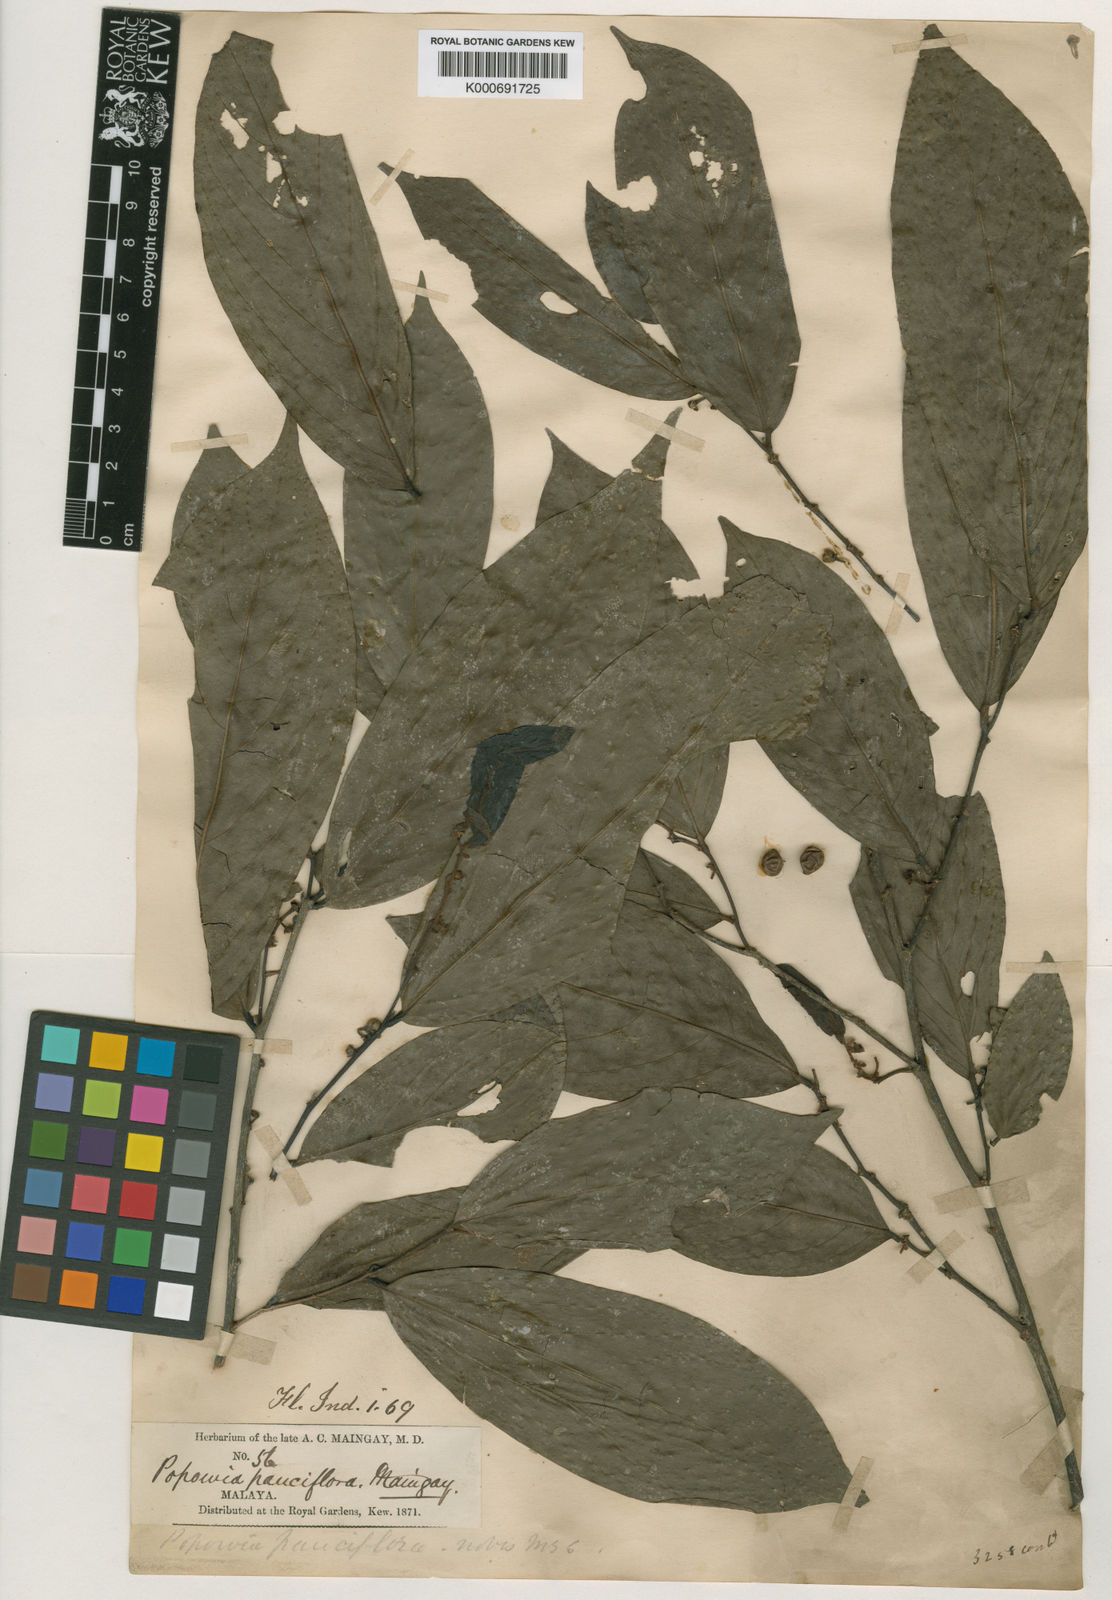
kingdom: Plantae
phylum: Tracheophyta
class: Magnoliopsida
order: Magnoliales
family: Annonaceae
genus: Popowia
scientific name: Popowia pauciflora
